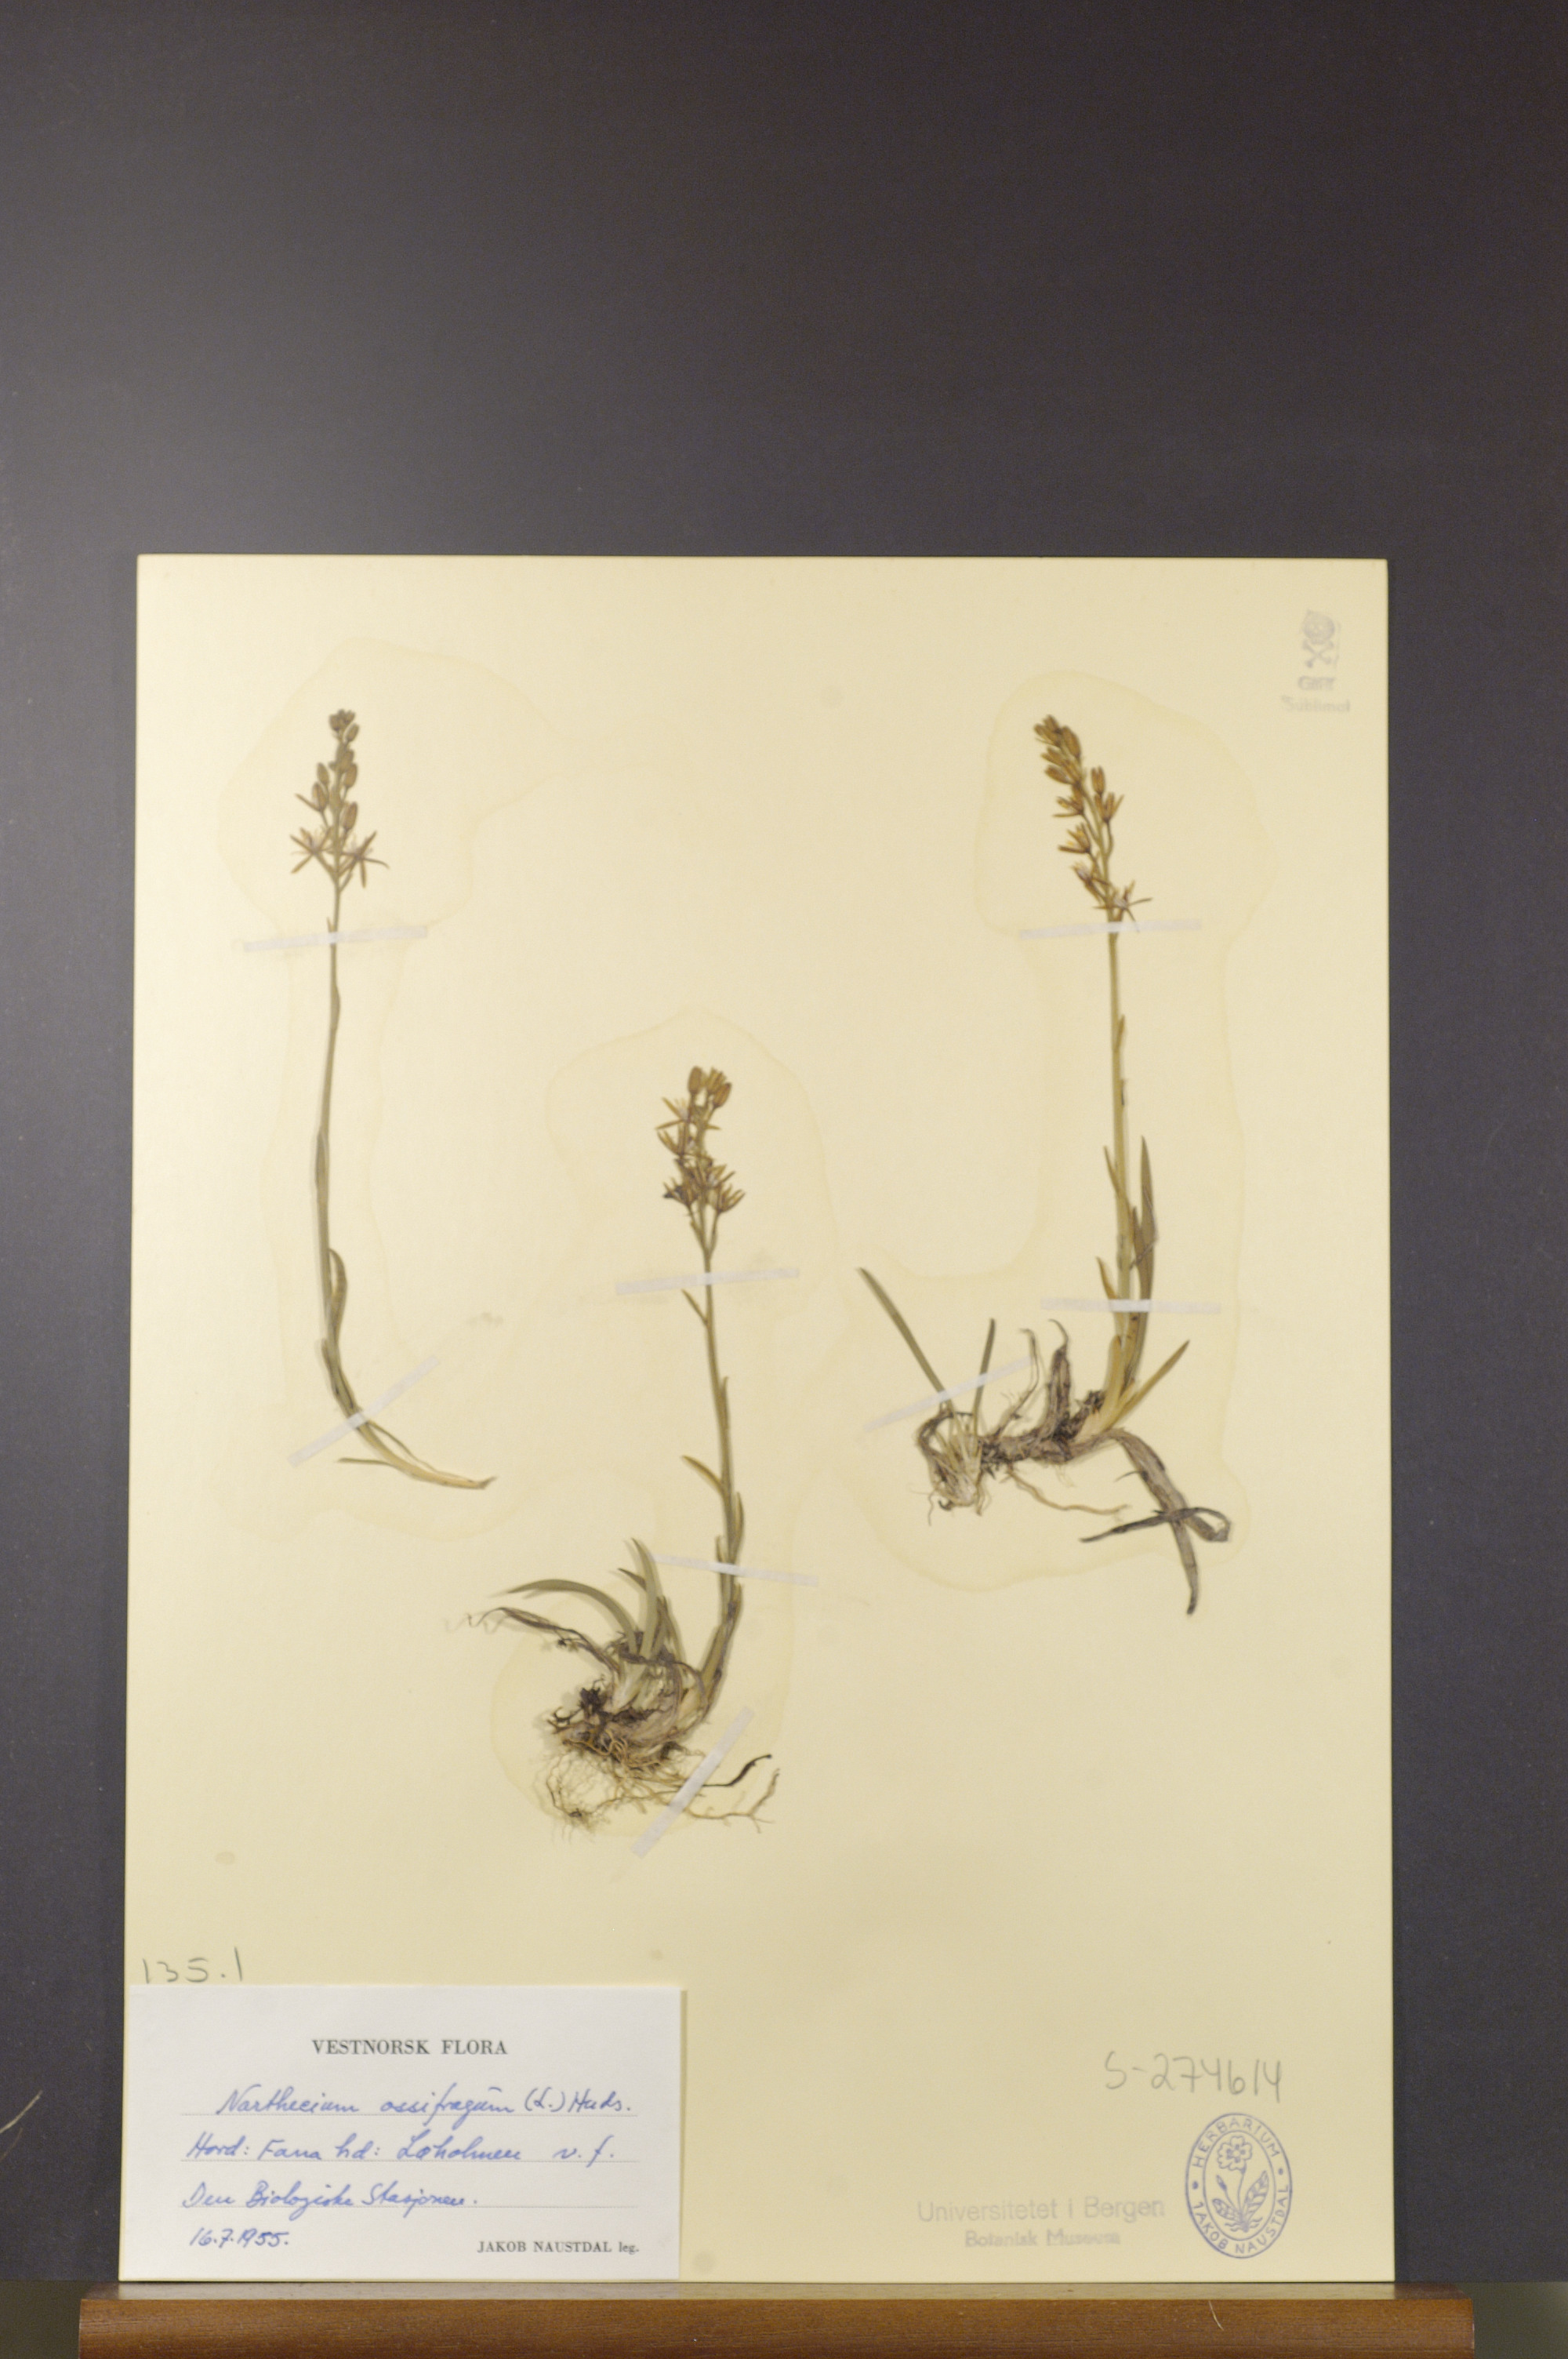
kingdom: Plantae
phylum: Tracheophyta
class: Liliopsida
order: Dioscoreales
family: Nartheciaceae
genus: Narthecium
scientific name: Narthecium ossifragum
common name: Bog asphodel
